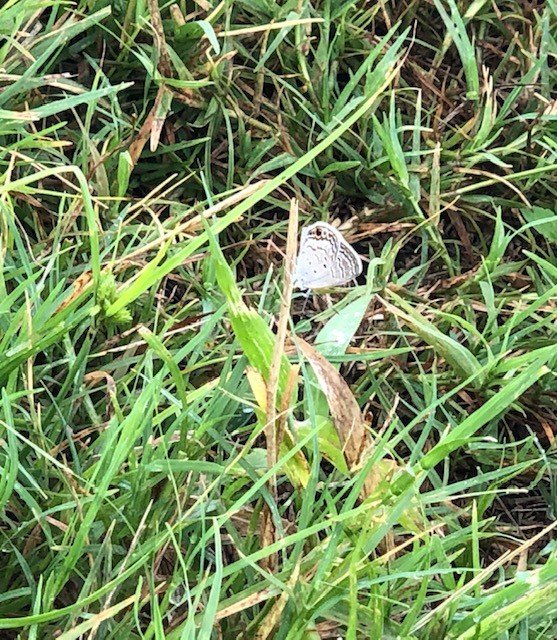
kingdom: Animalia
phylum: Arthropoda
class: Insecta
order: Lepidoptera
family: Lycaenidae
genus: Hemiargus
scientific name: Hemiargus ceraunus
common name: Ceraunus Blue
